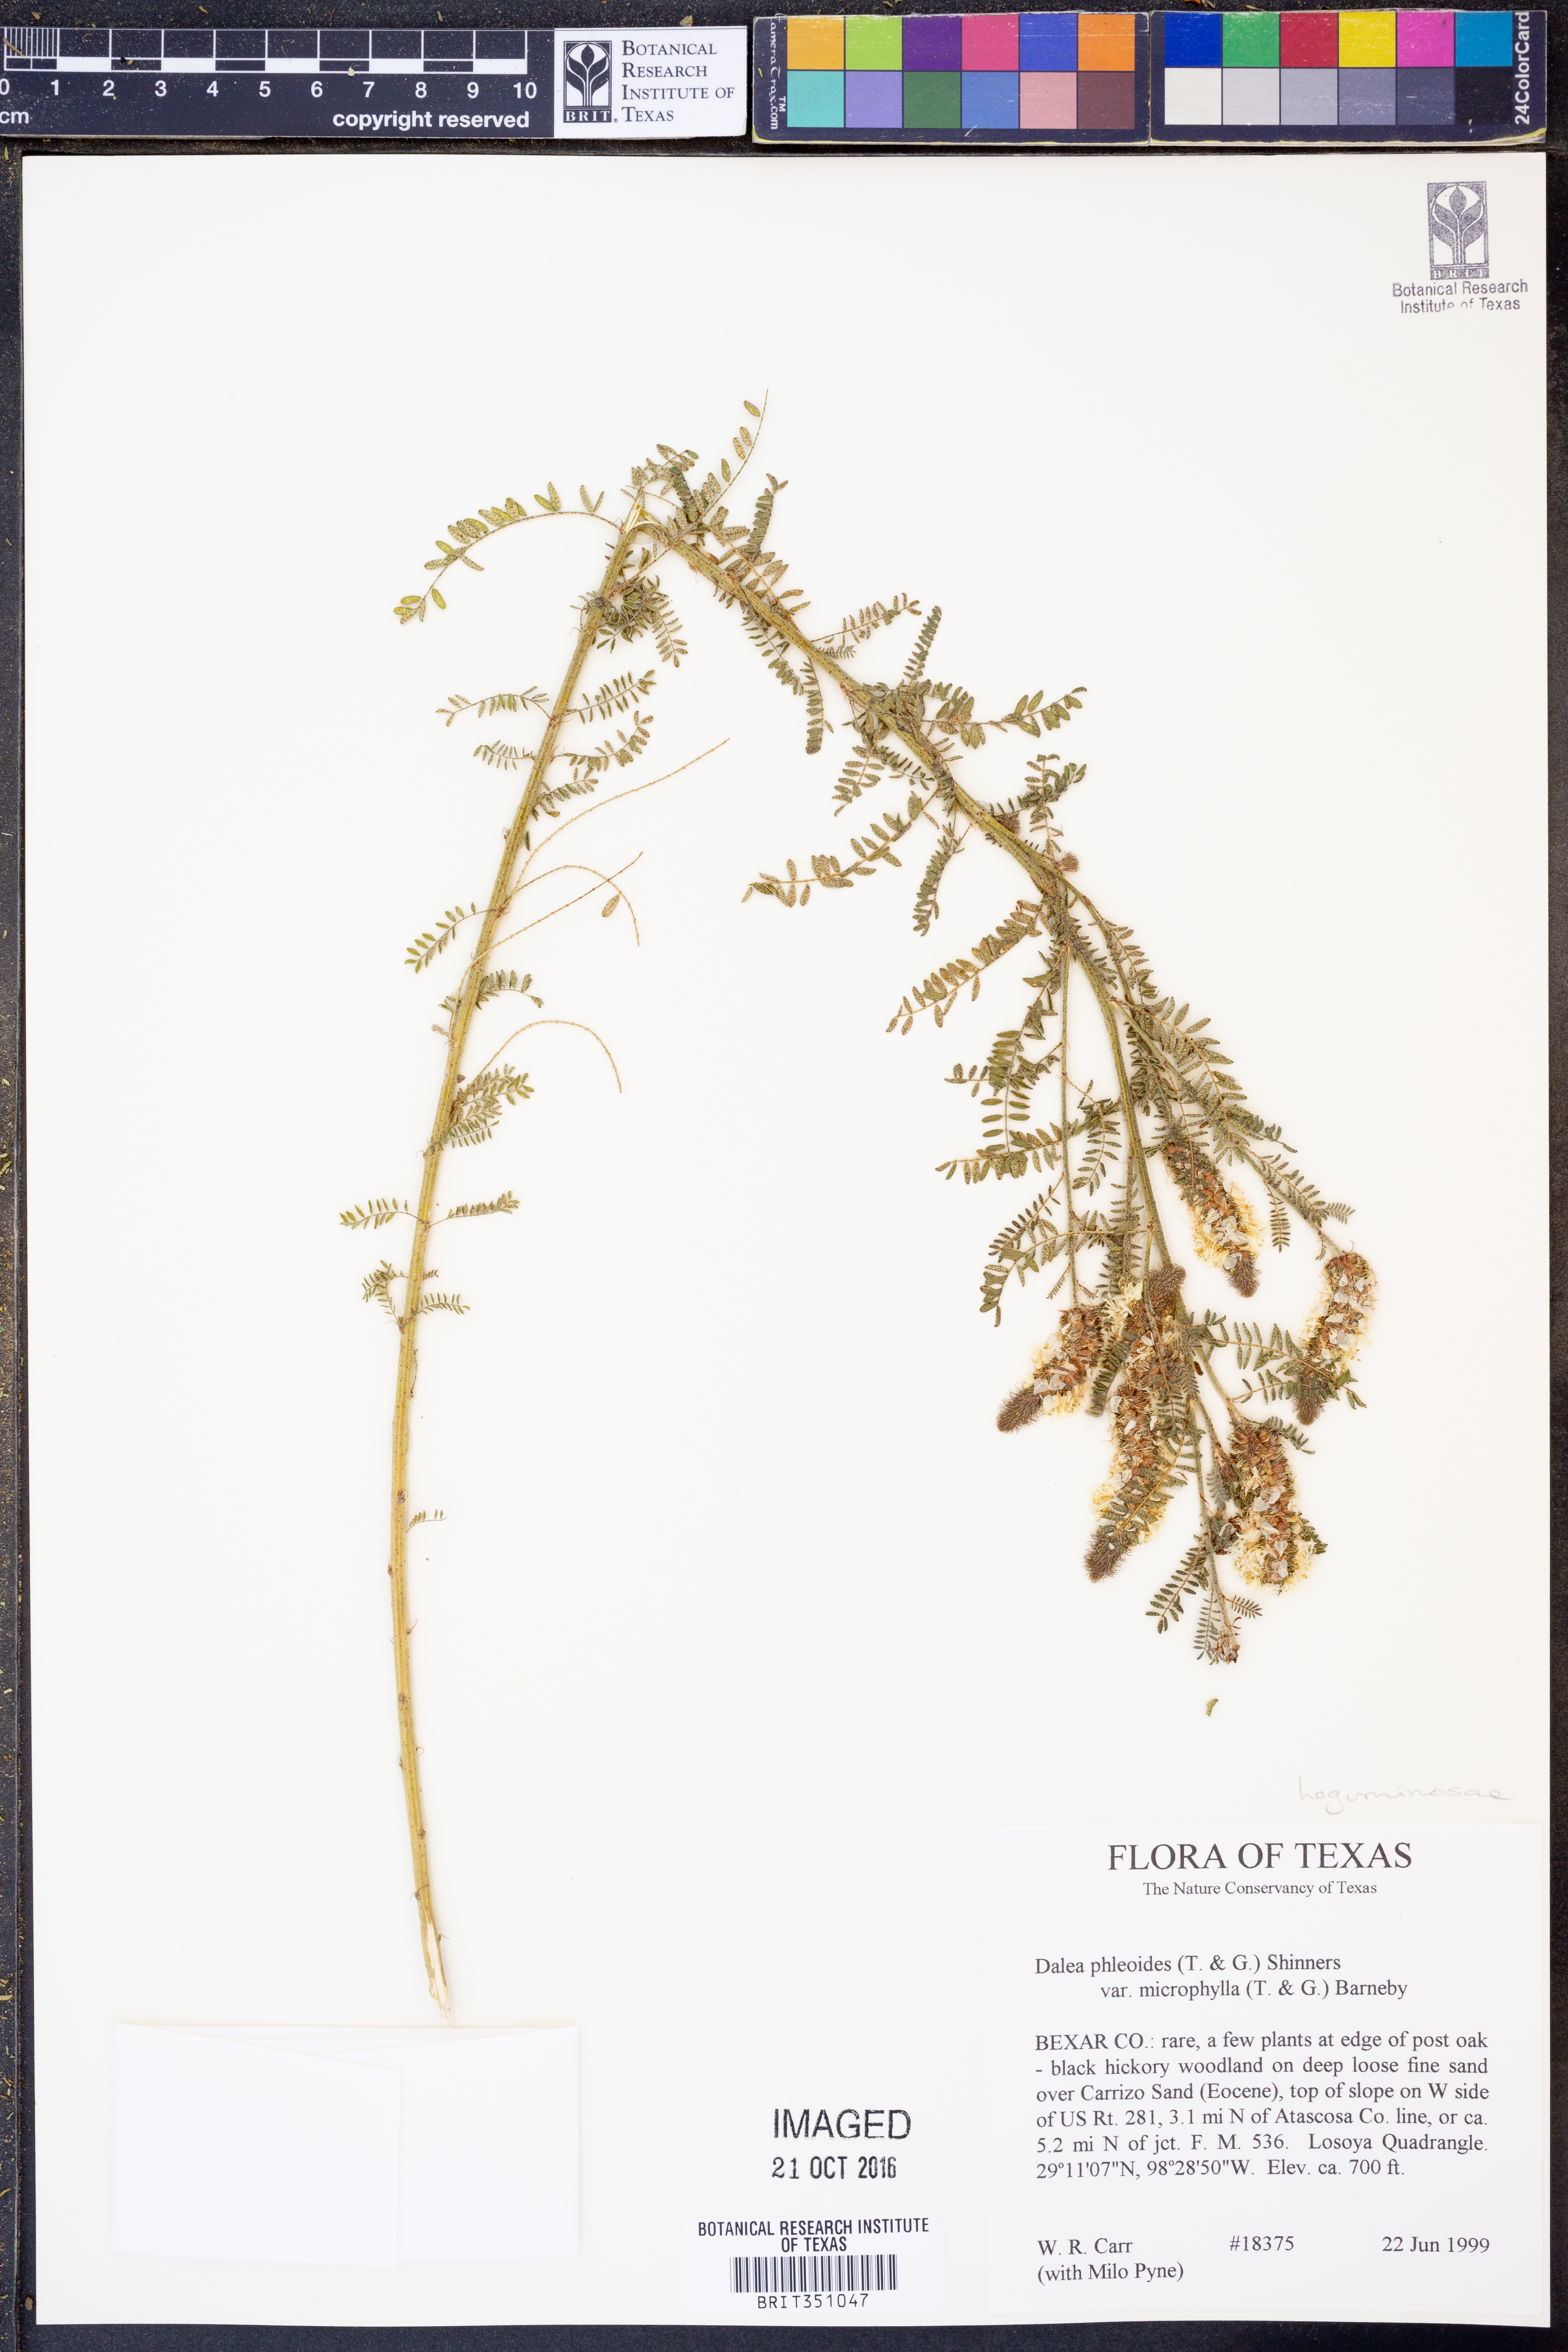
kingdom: Plantae
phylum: Tracheophyta
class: Magnoliopsida
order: Fabales
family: Fabaceae
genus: Dalea
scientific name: Dalea drummondiana
